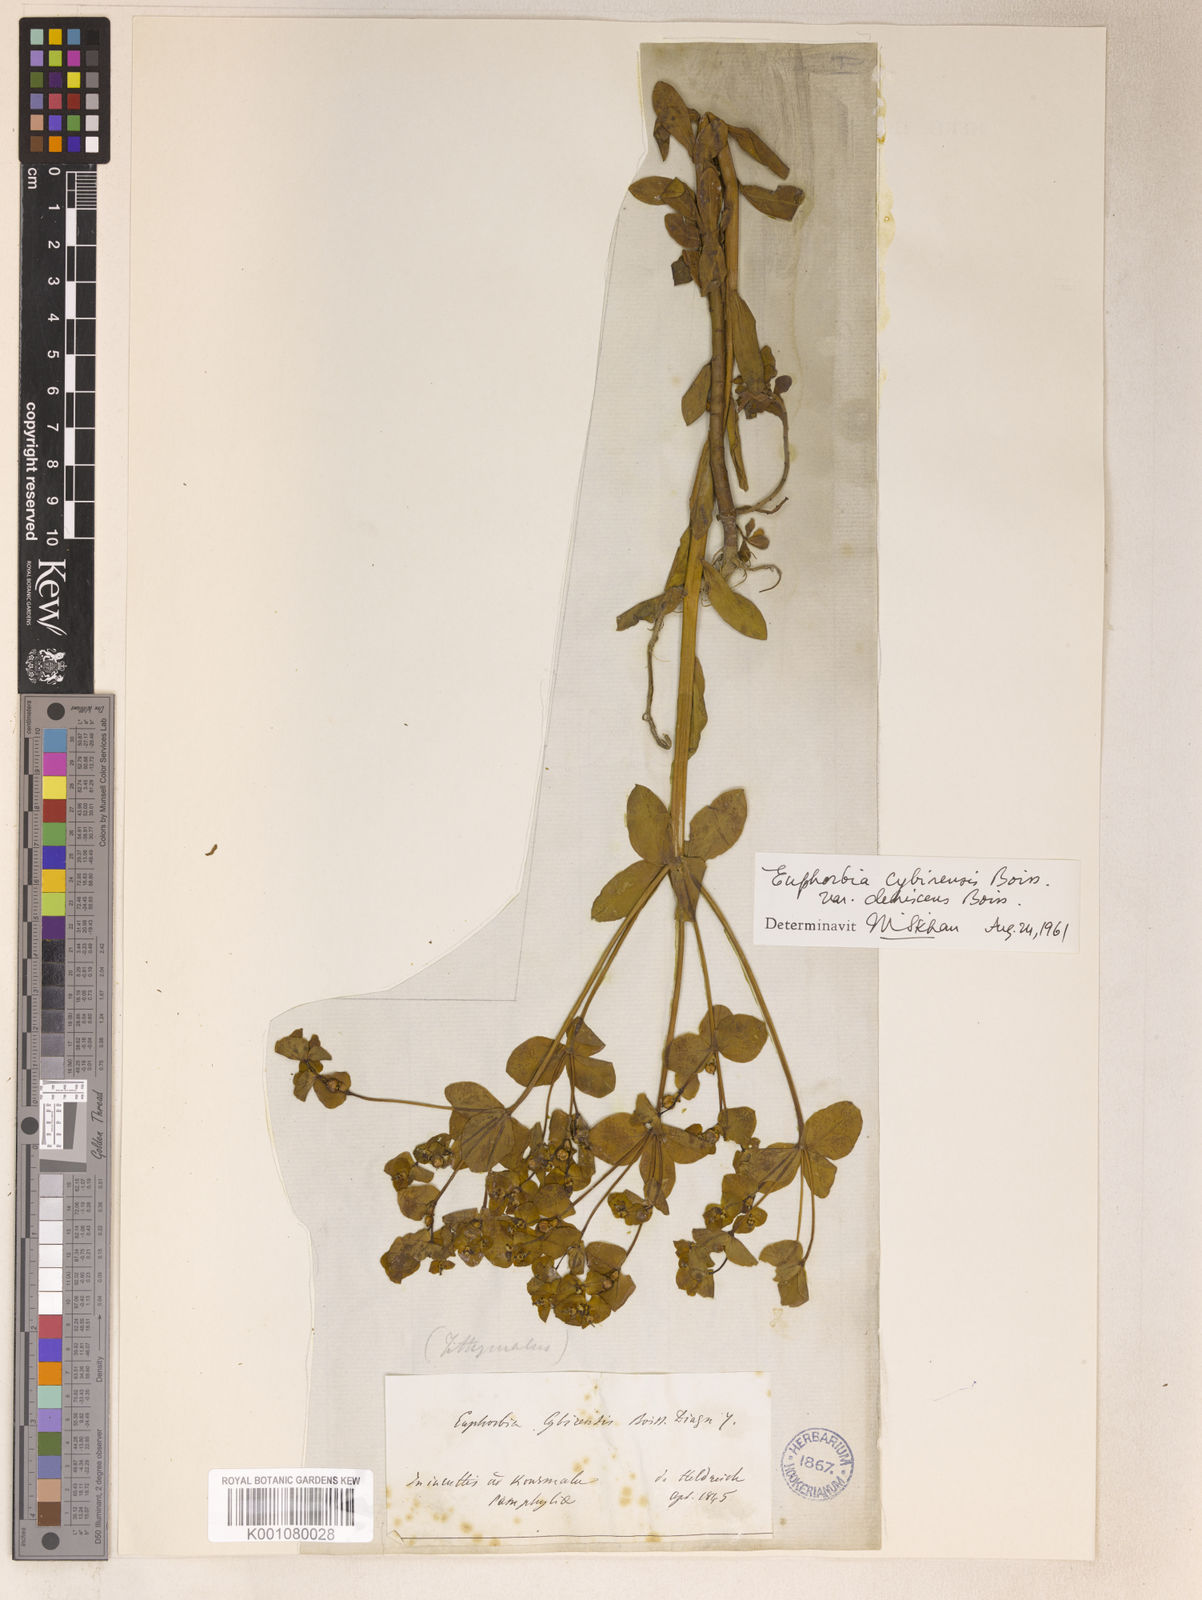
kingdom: Plantae
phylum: Tracheophyta
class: Magnoliopsida
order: Malpighiales
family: Euphorbiaceae
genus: Euphorbia
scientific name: Euphorbia valerianifolia
